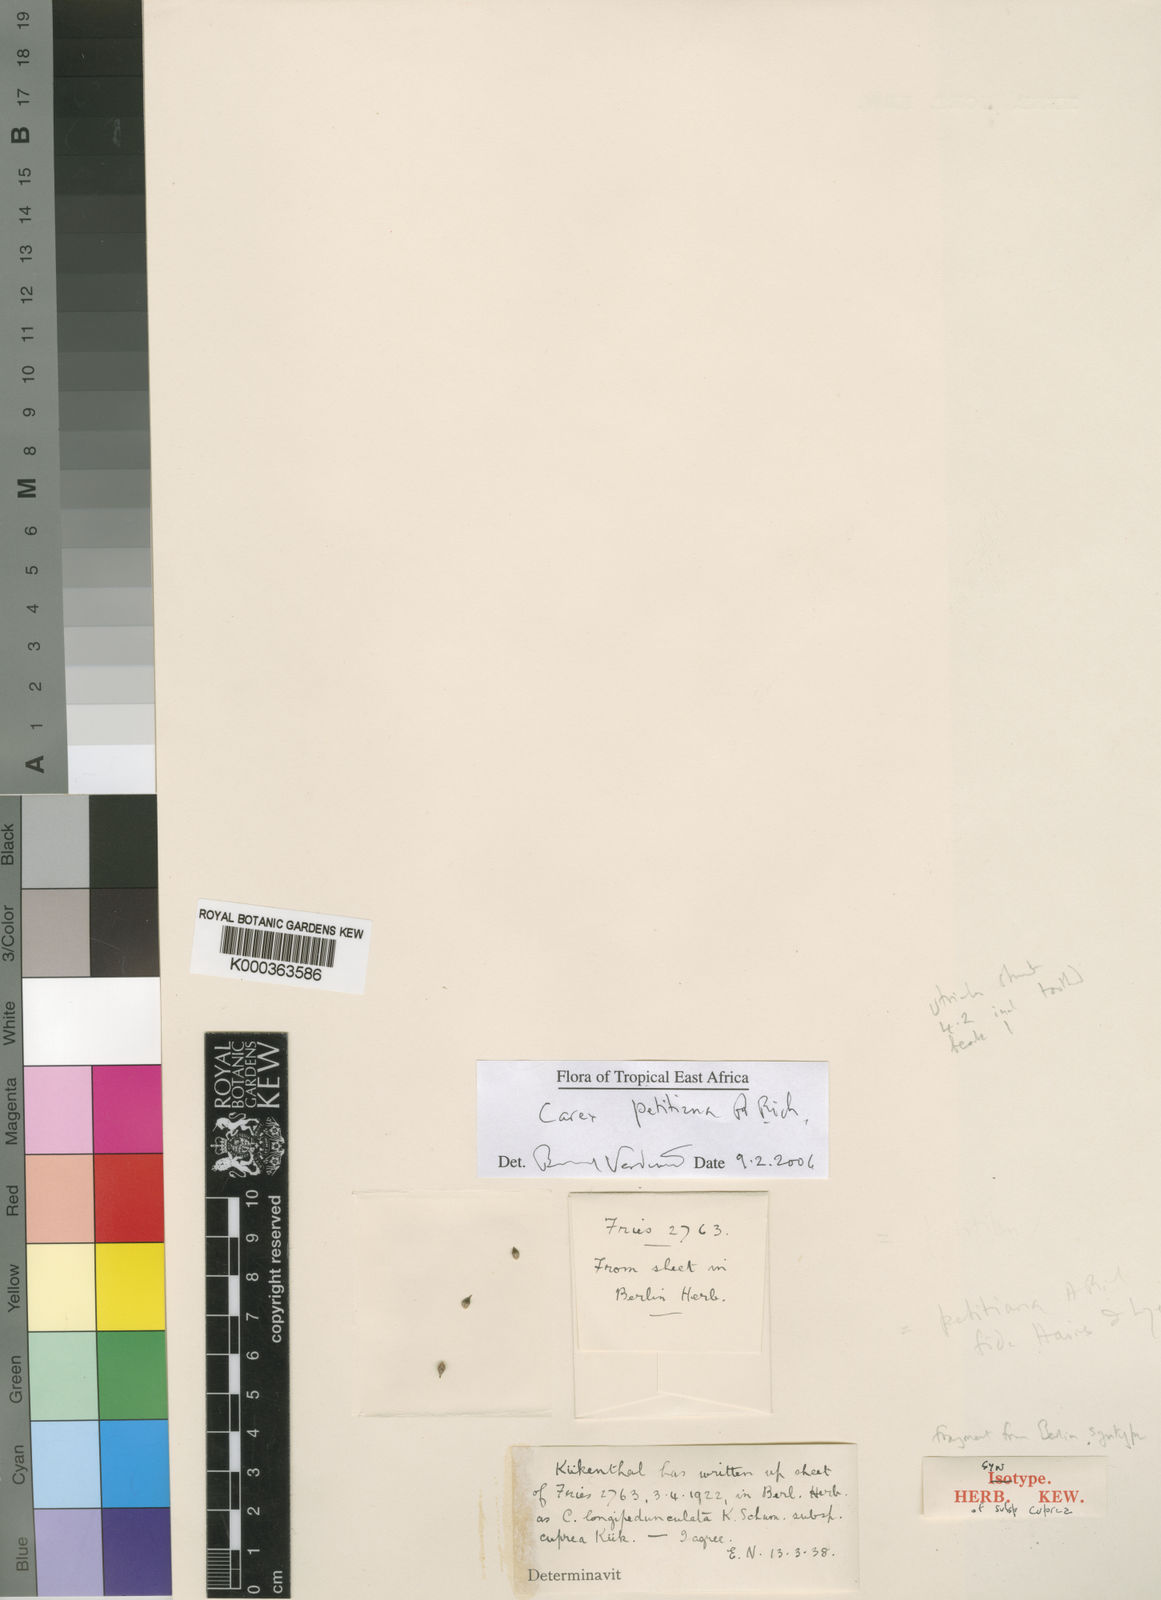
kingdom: Plantae
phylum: Tracheophyta
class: Liliopsida
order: Poales
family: Cyperaceae
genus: Carex
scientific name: Carex
